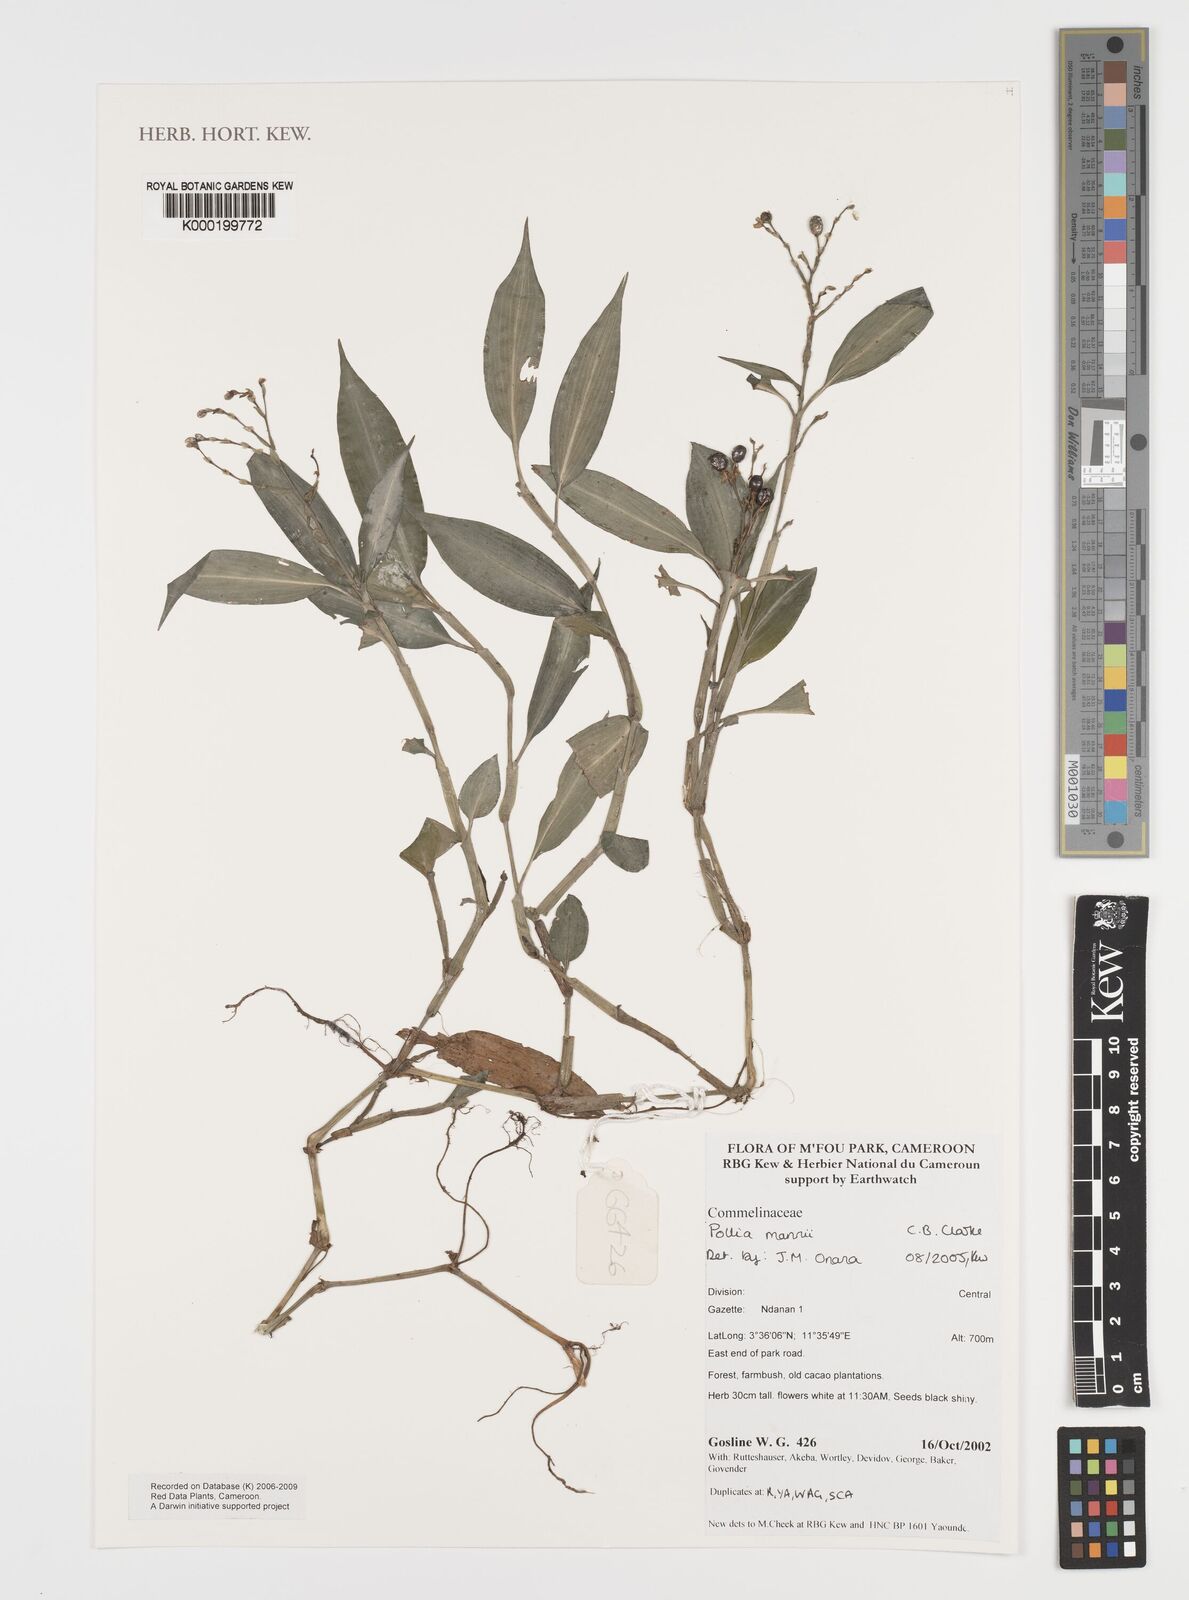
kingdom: Plantae
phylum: Tracheophyta
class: Liliopsida
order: Commelinales
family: Commelinaceae
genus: Pollia
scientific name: Pollia mannii
